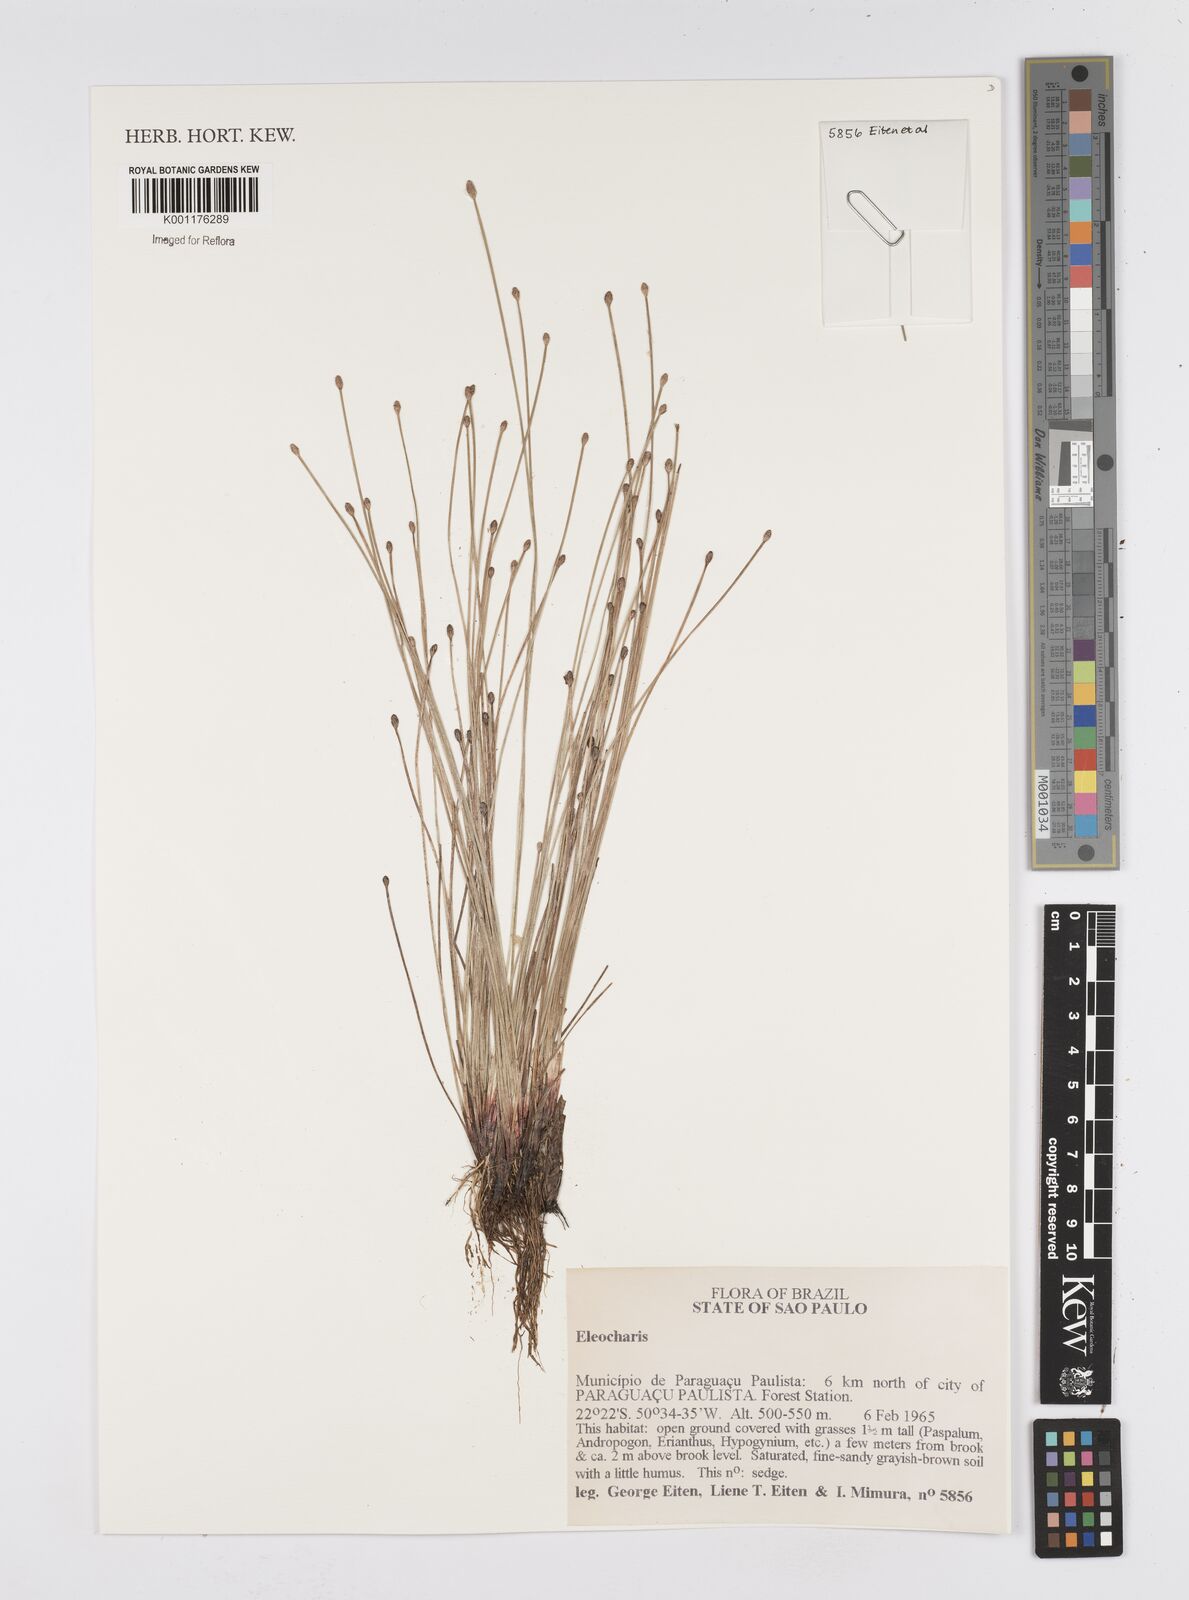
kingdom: Plantae
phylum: Tracheophyta
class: Liliopsida
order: Poales
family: Cyperaceae
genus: Eleocharis
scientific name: Eleocharis
